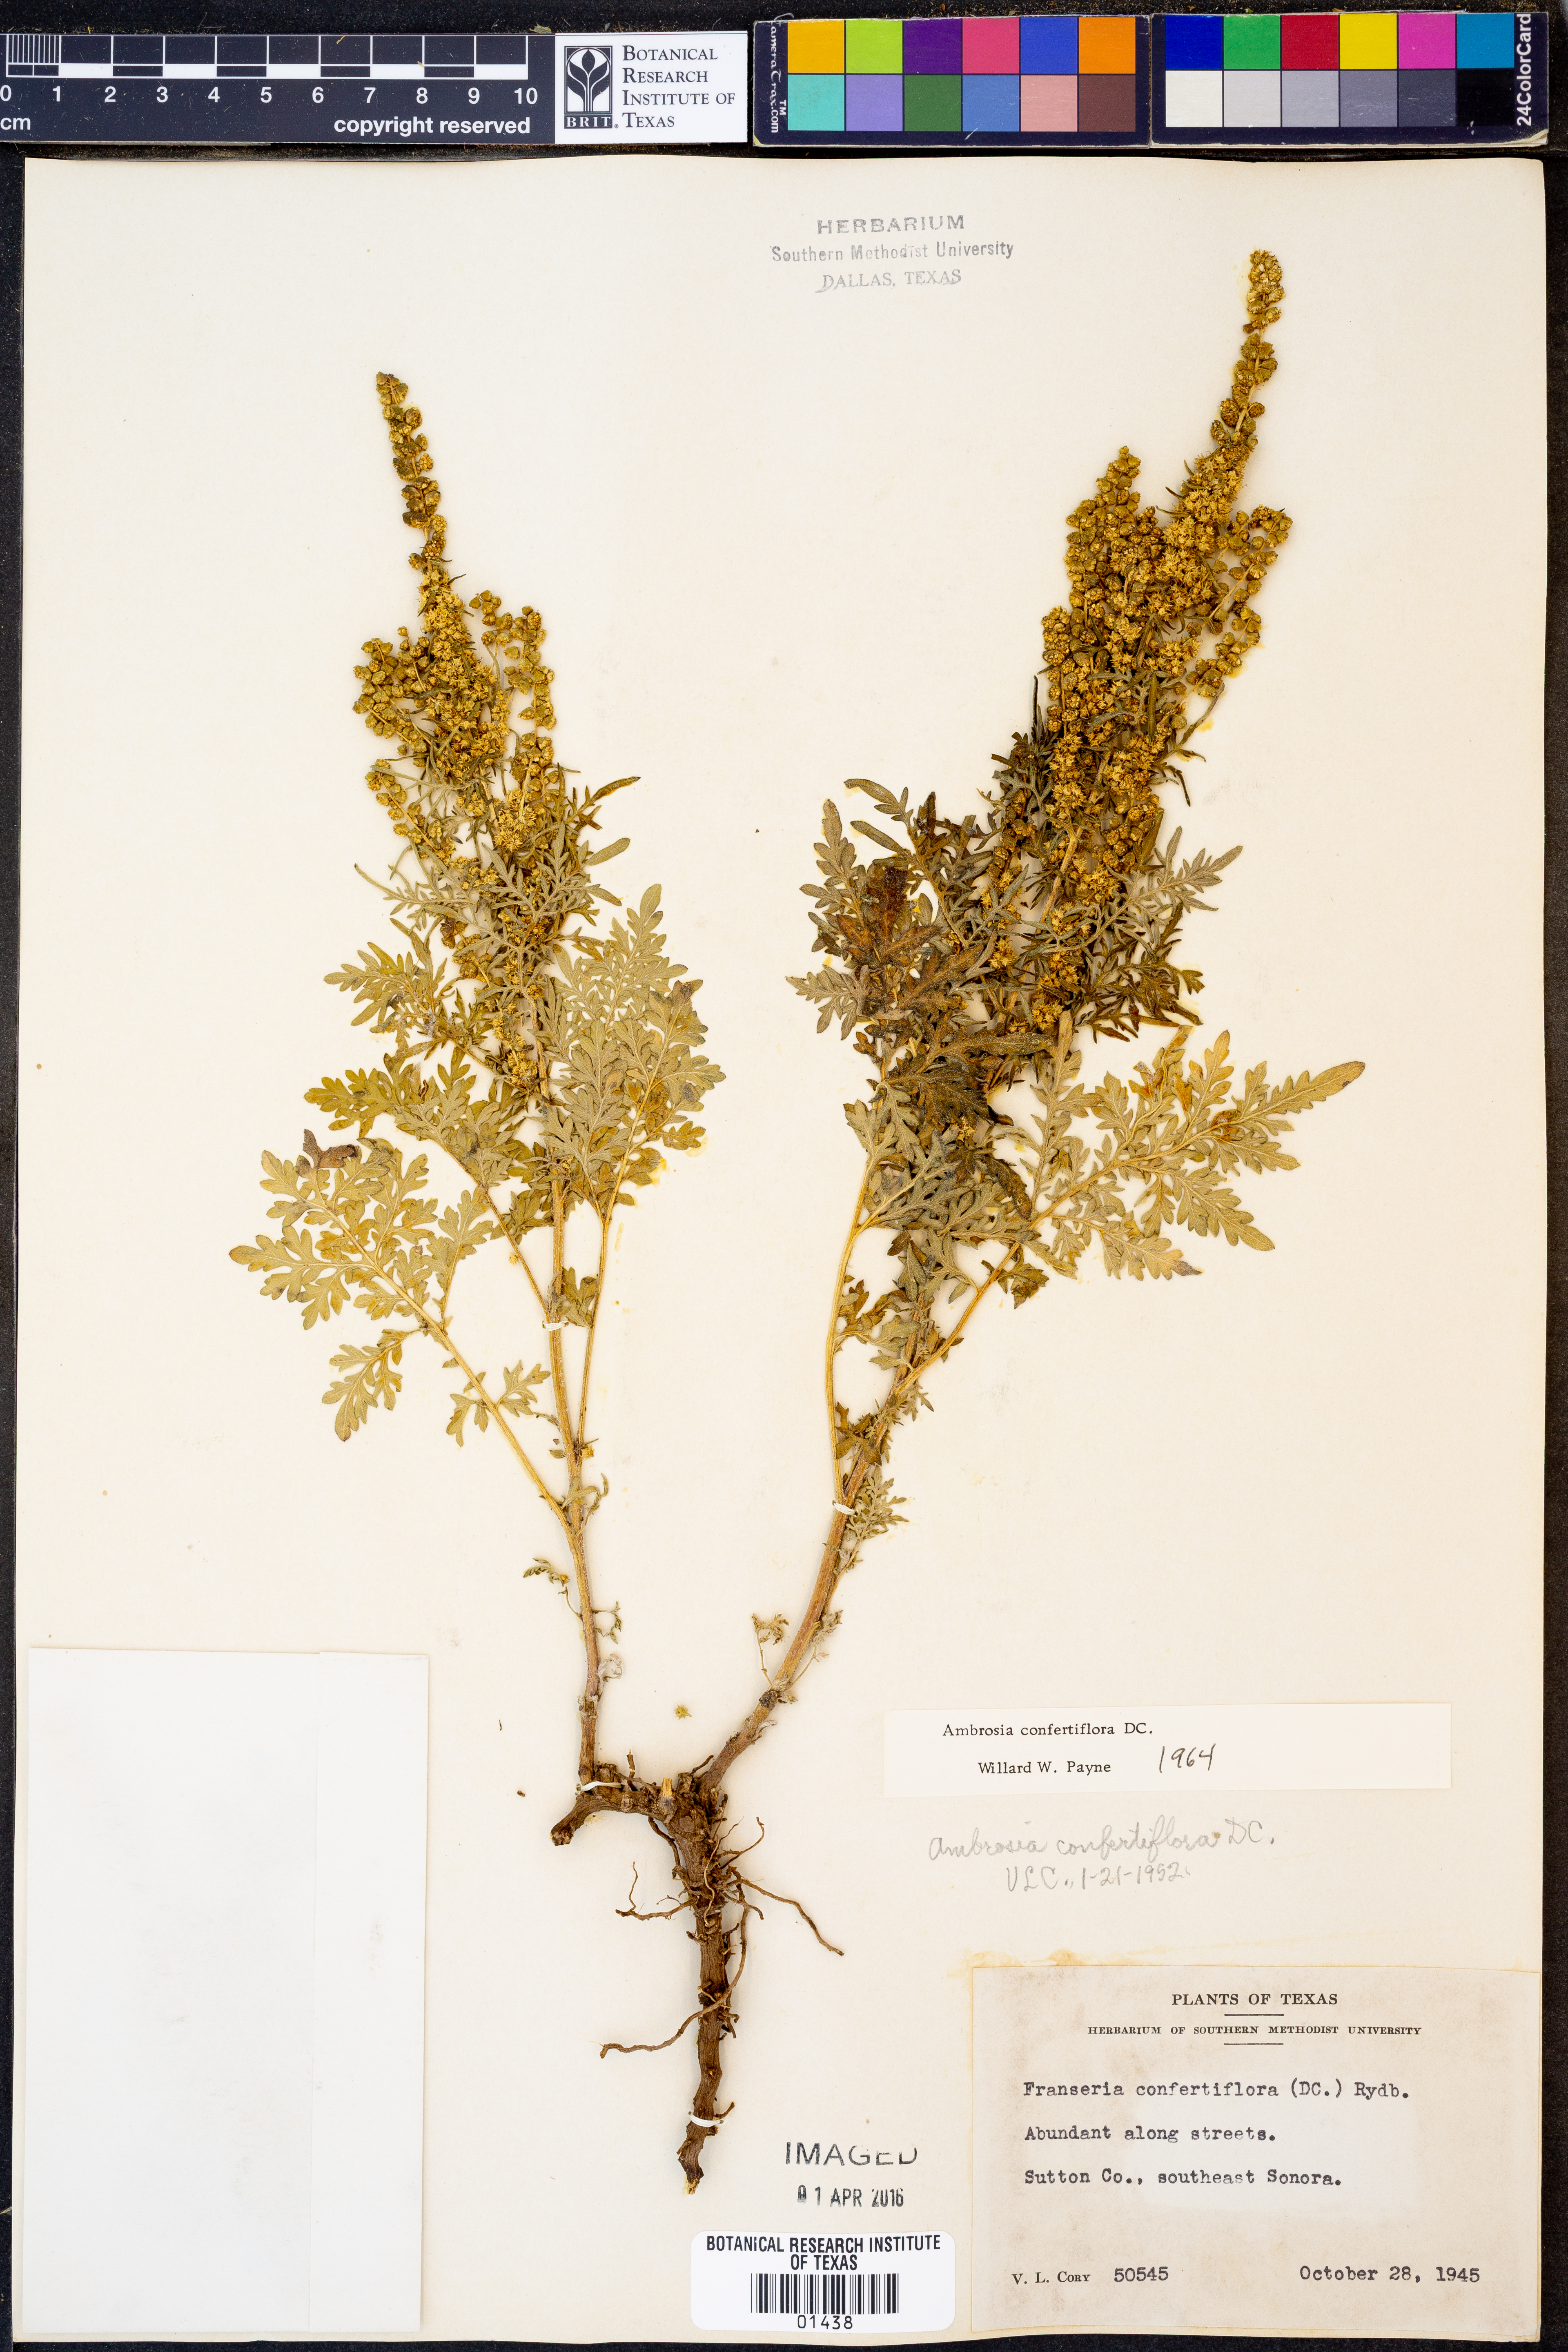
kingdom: Plantae
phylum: Tracheophyta
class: Magnoliopsida
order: Asterales
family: Asteraceae
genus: Ambrosia
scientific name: Ambrosia confertiflora
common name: Bur ragweed
